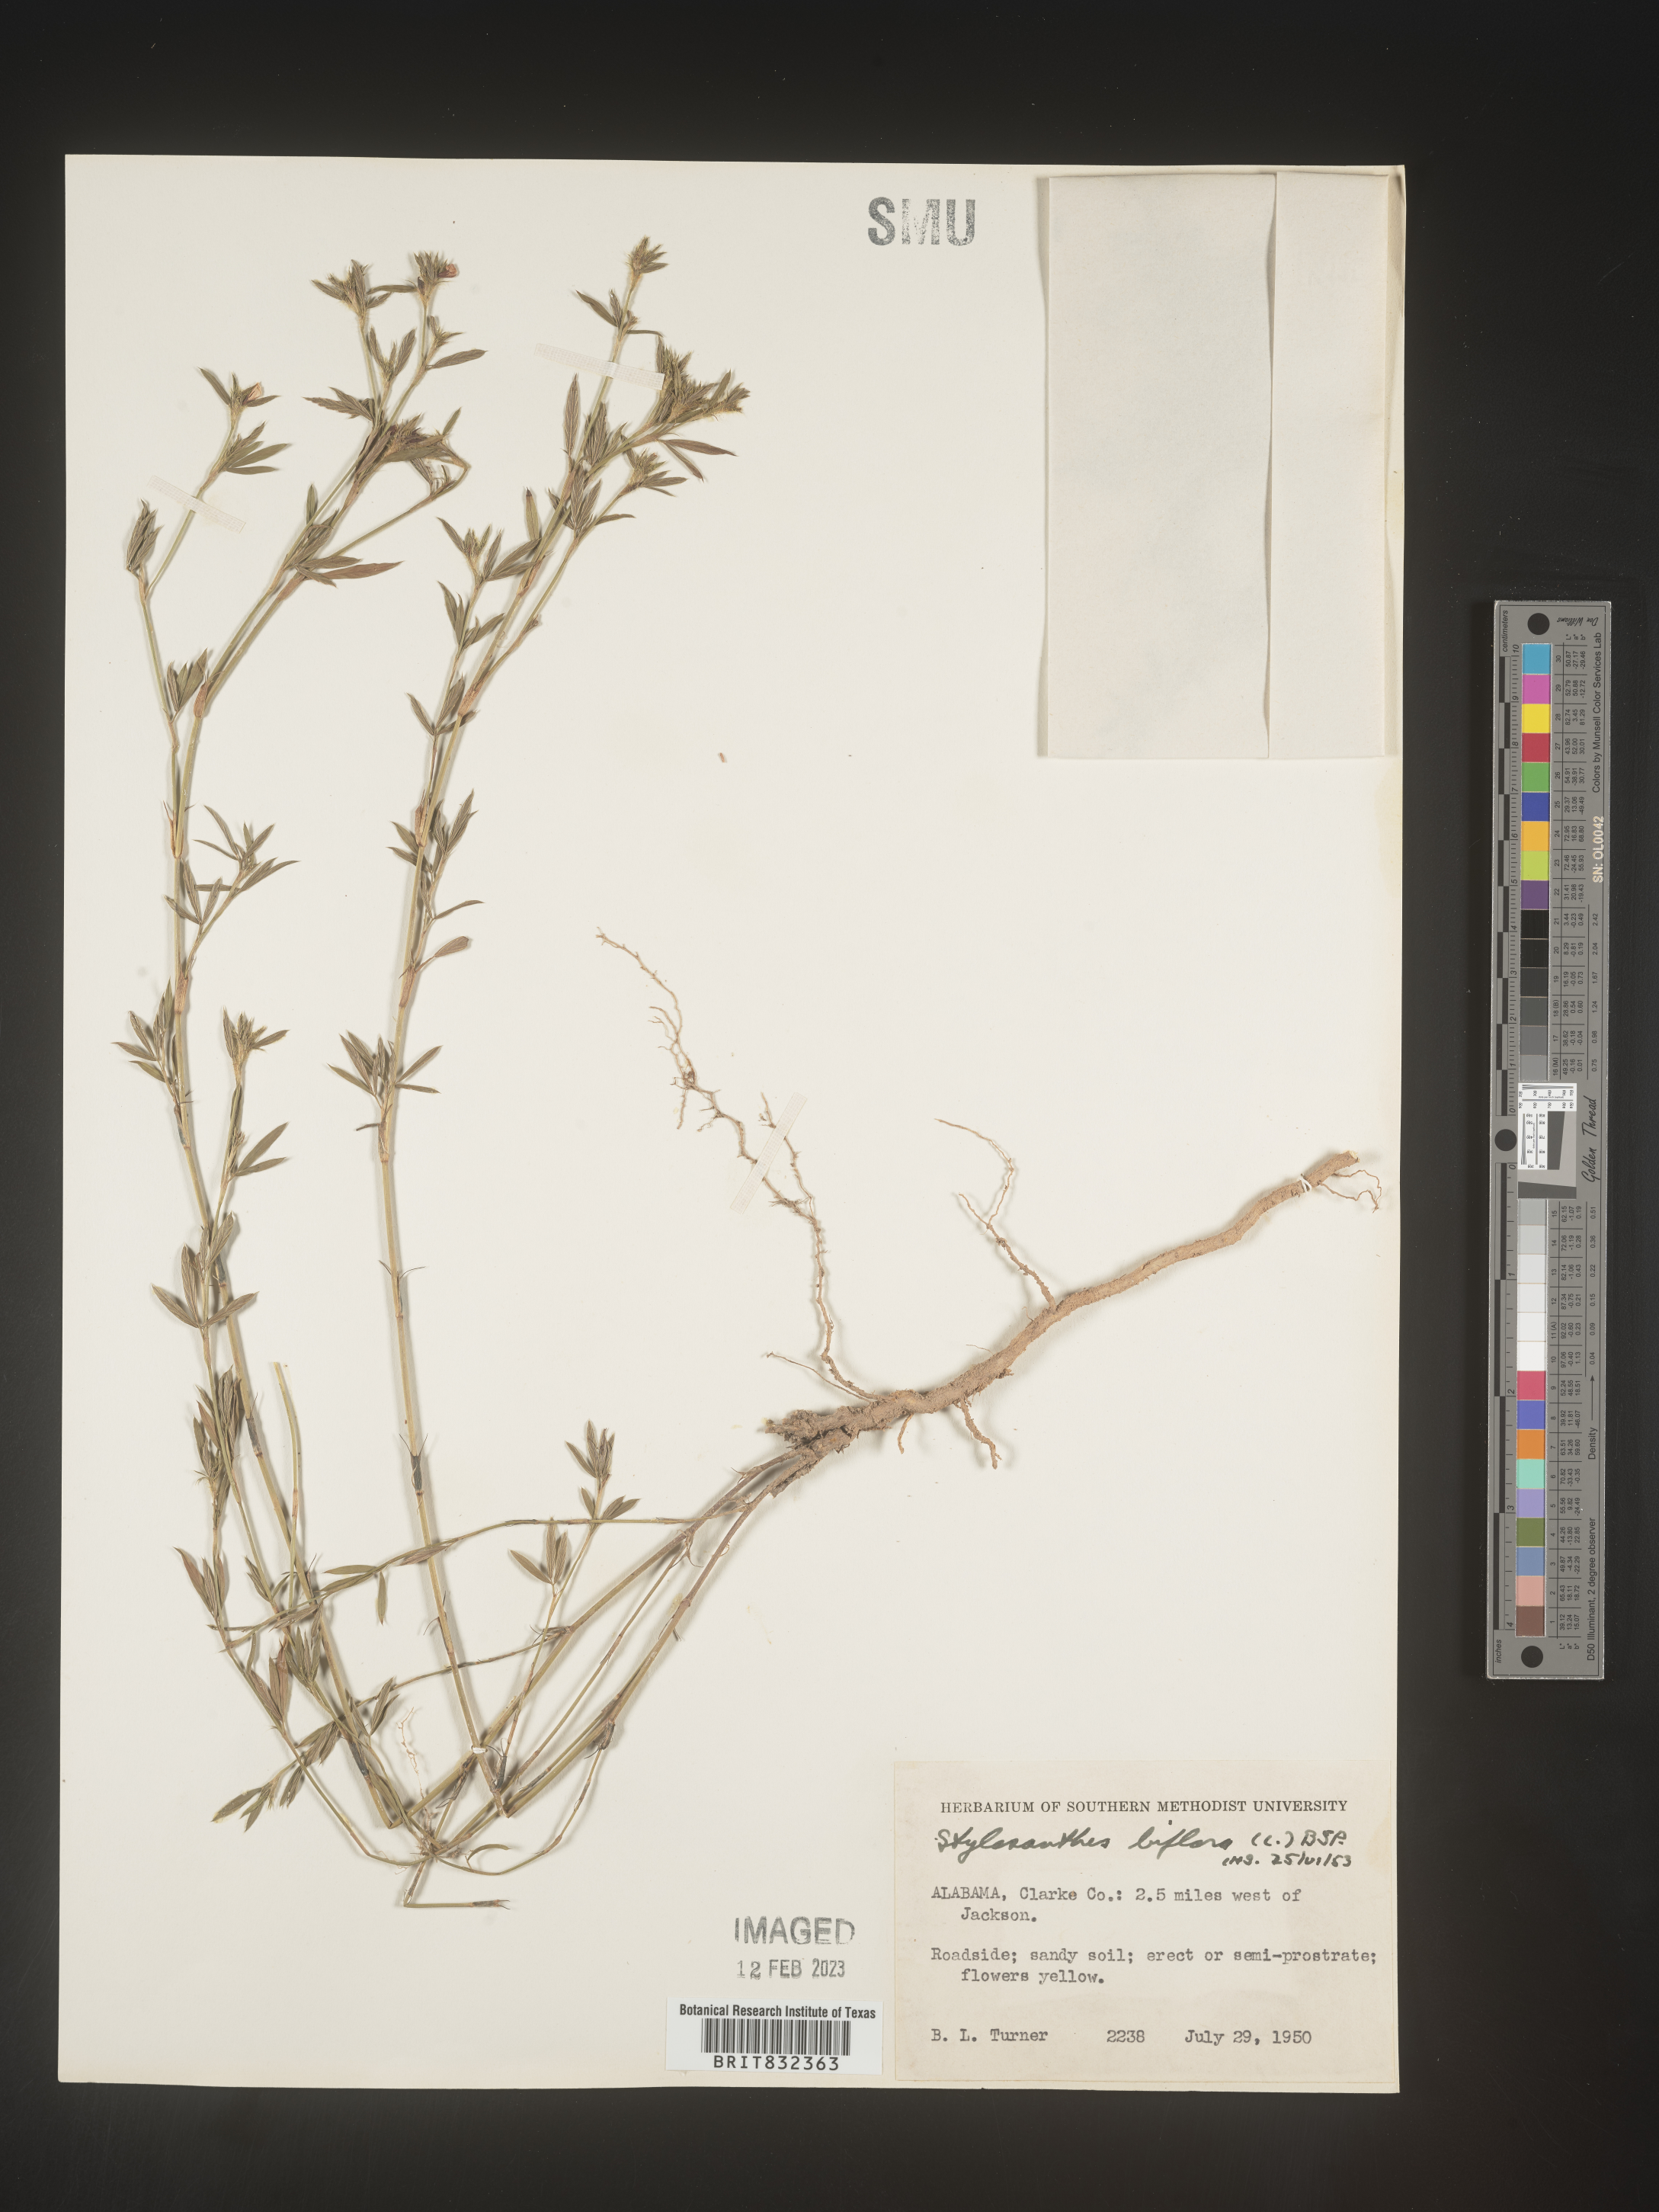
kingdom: Plantae
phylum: Tracheophyta
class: Magnoliopsida
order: Fabales
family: Fabaceae
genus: Stylosanthes
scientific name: Stylosanthes biflora
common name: Two-flower pencil-flower
